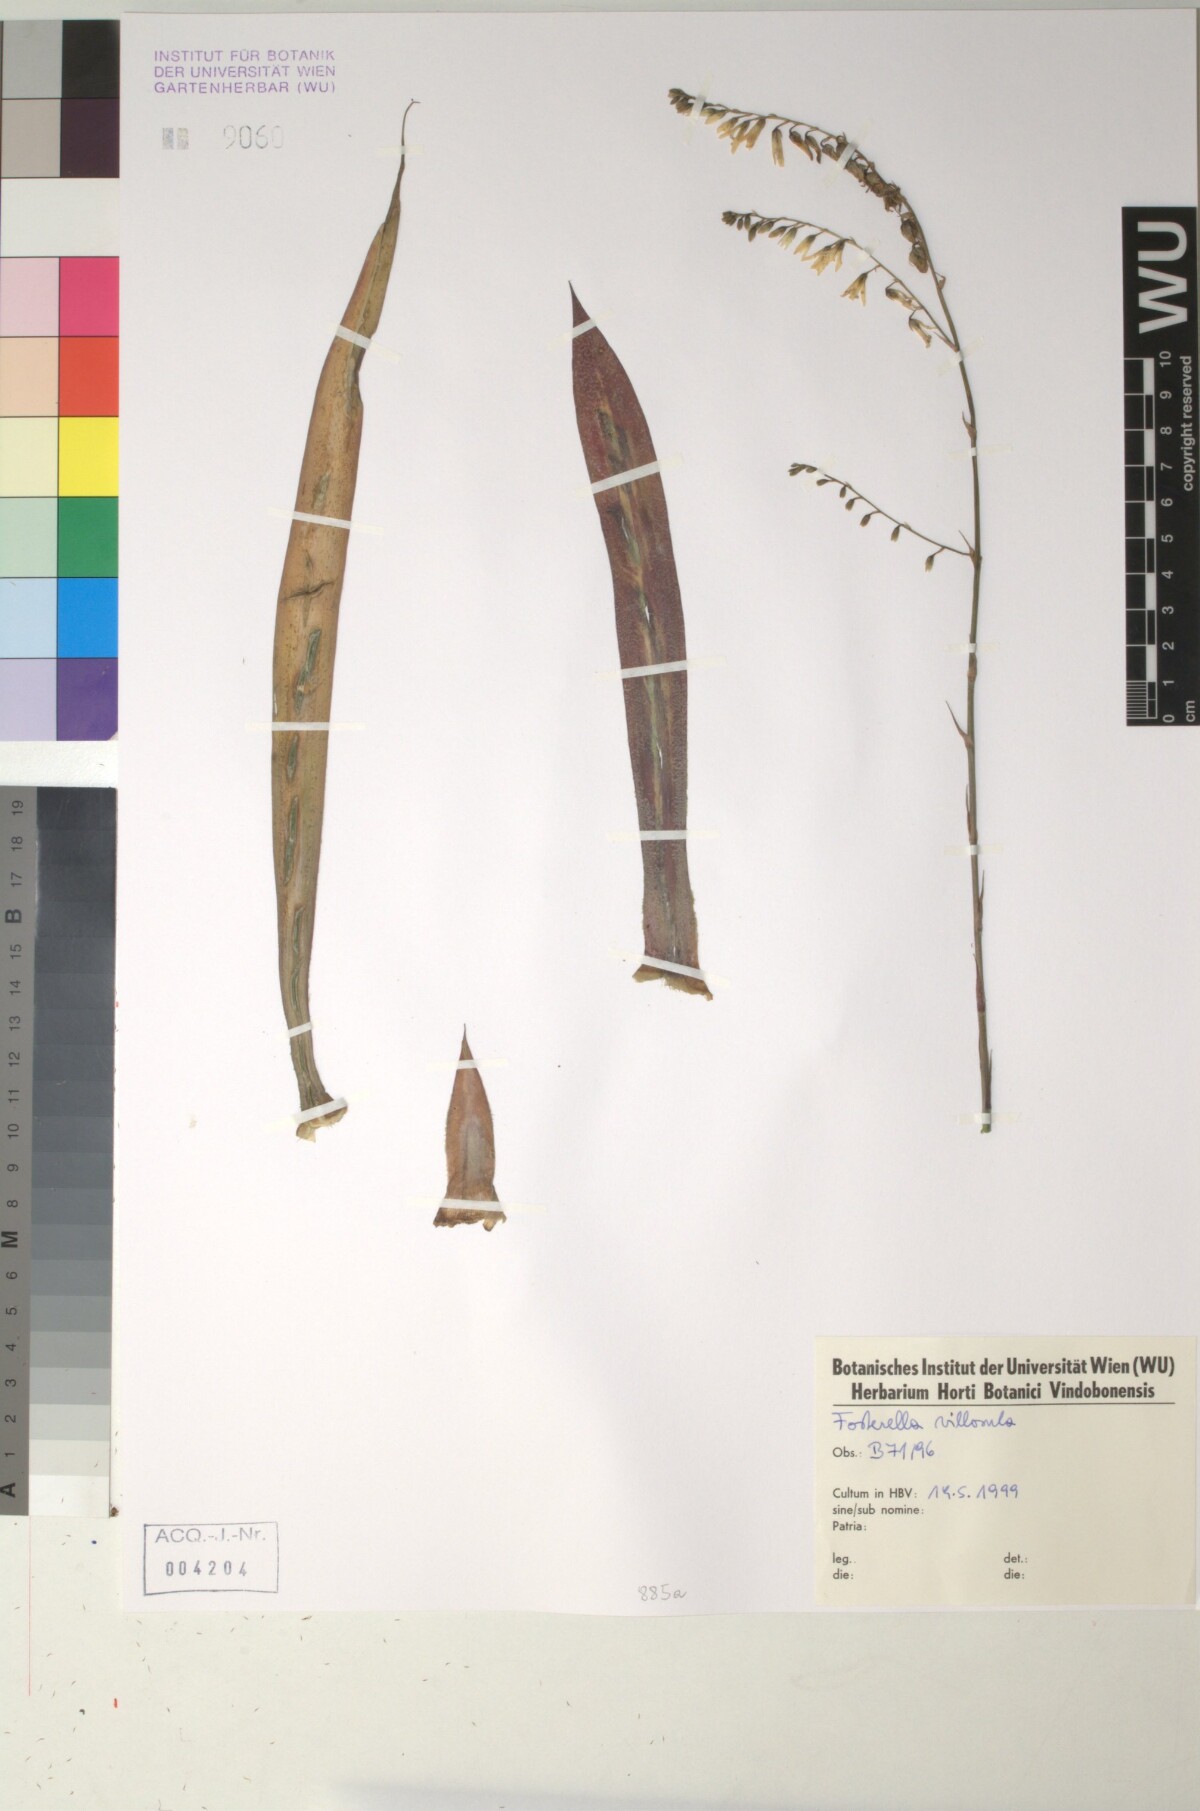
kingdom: Plantae
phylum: Tracheophyta
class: Liliopsida
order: Poales
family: Bromeliaceae
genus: Fosterella
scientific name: Fosterella penduliflora
